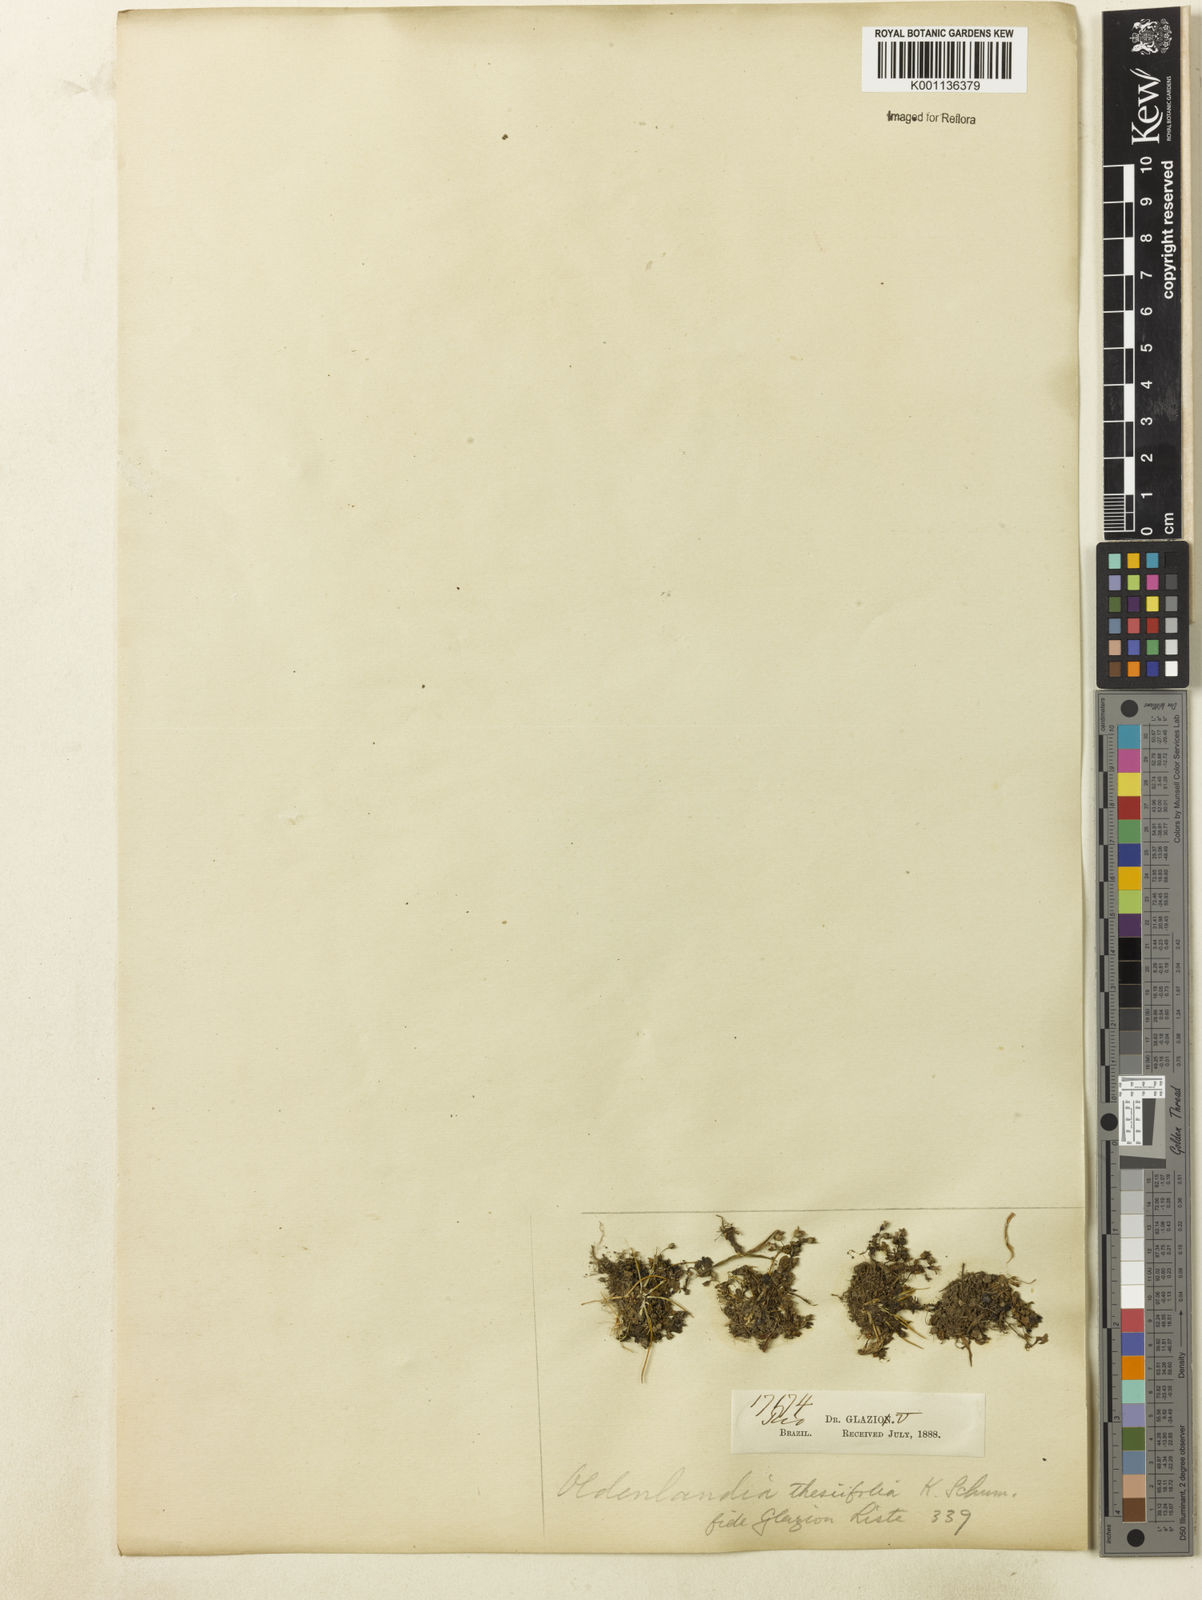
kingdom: Plantae
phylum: Tracheophyta
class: Magnoliopsida
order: Gentianales
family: Rubiaceae
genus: Oldenlandia
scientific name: Oldenlandia salzmannii
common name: Salzmann's mille graines
